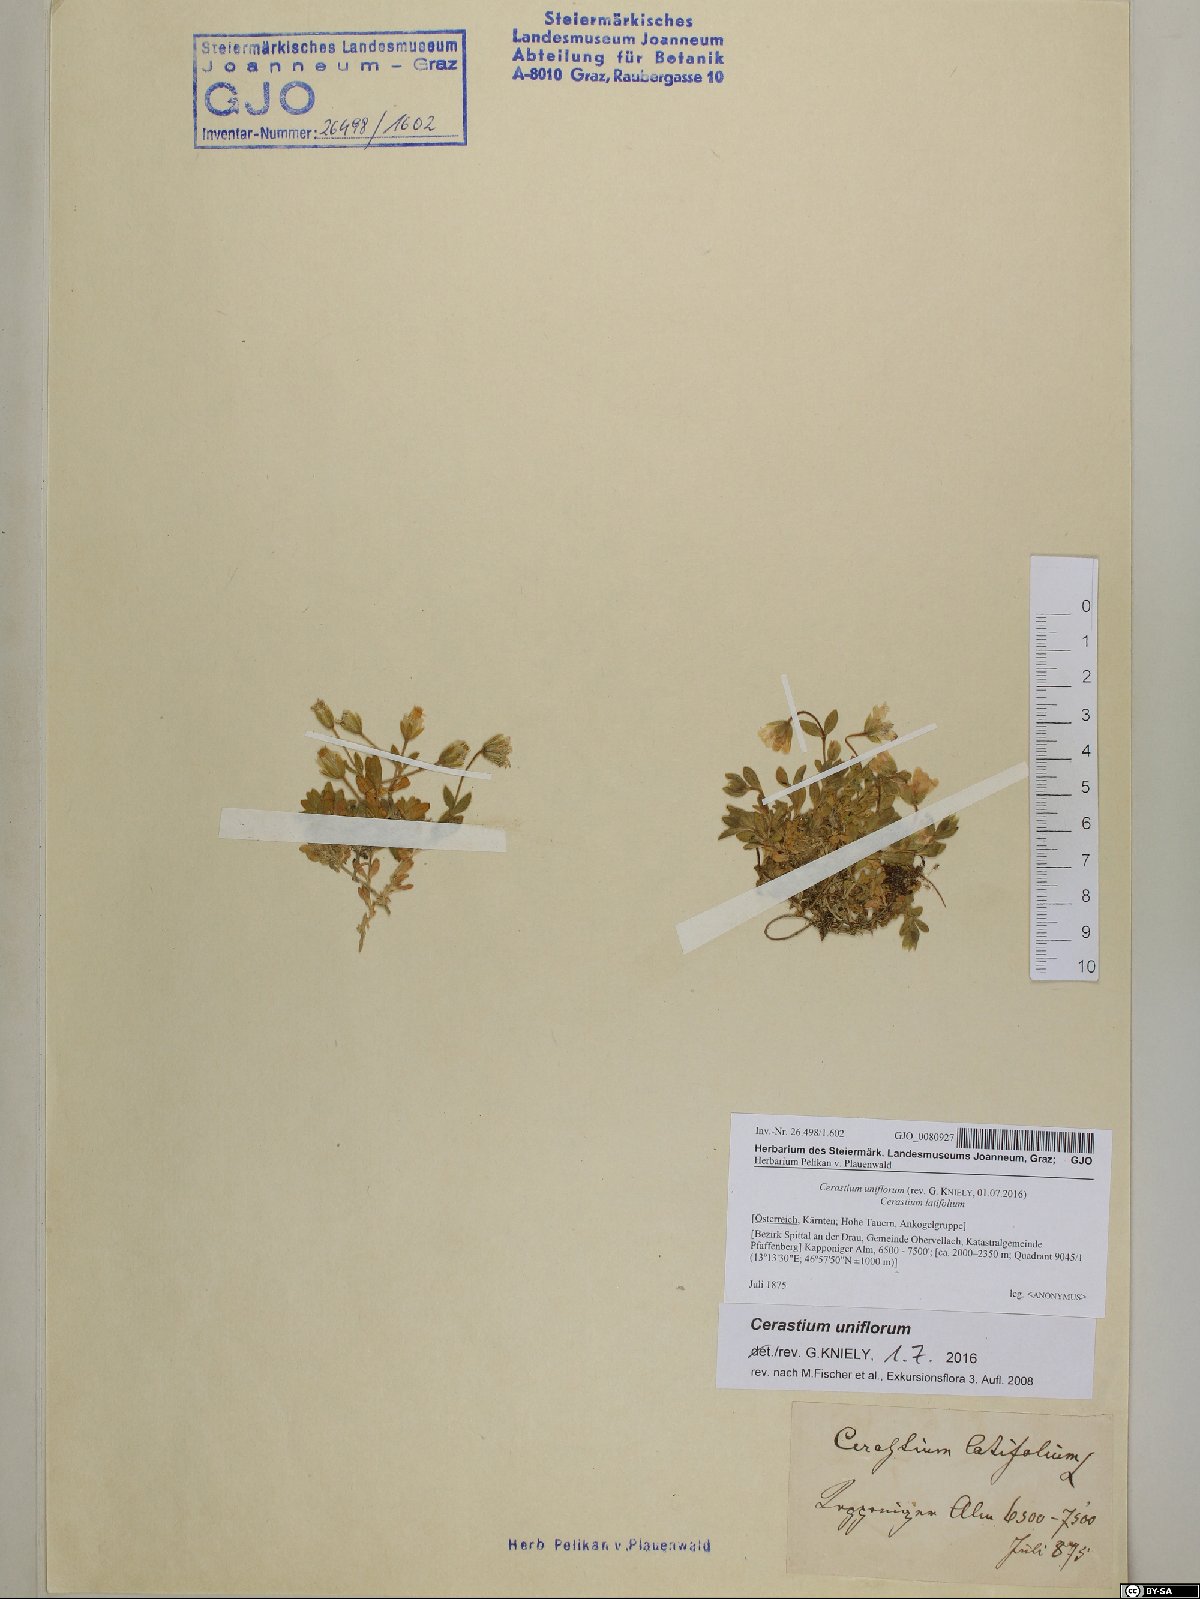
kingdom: Plantae
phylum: Tracheophyta
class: Magnoliopsida
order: Caryophyllales
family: Caryophyllaceae
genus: Cerastium
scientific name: Cerastium uniflorum
